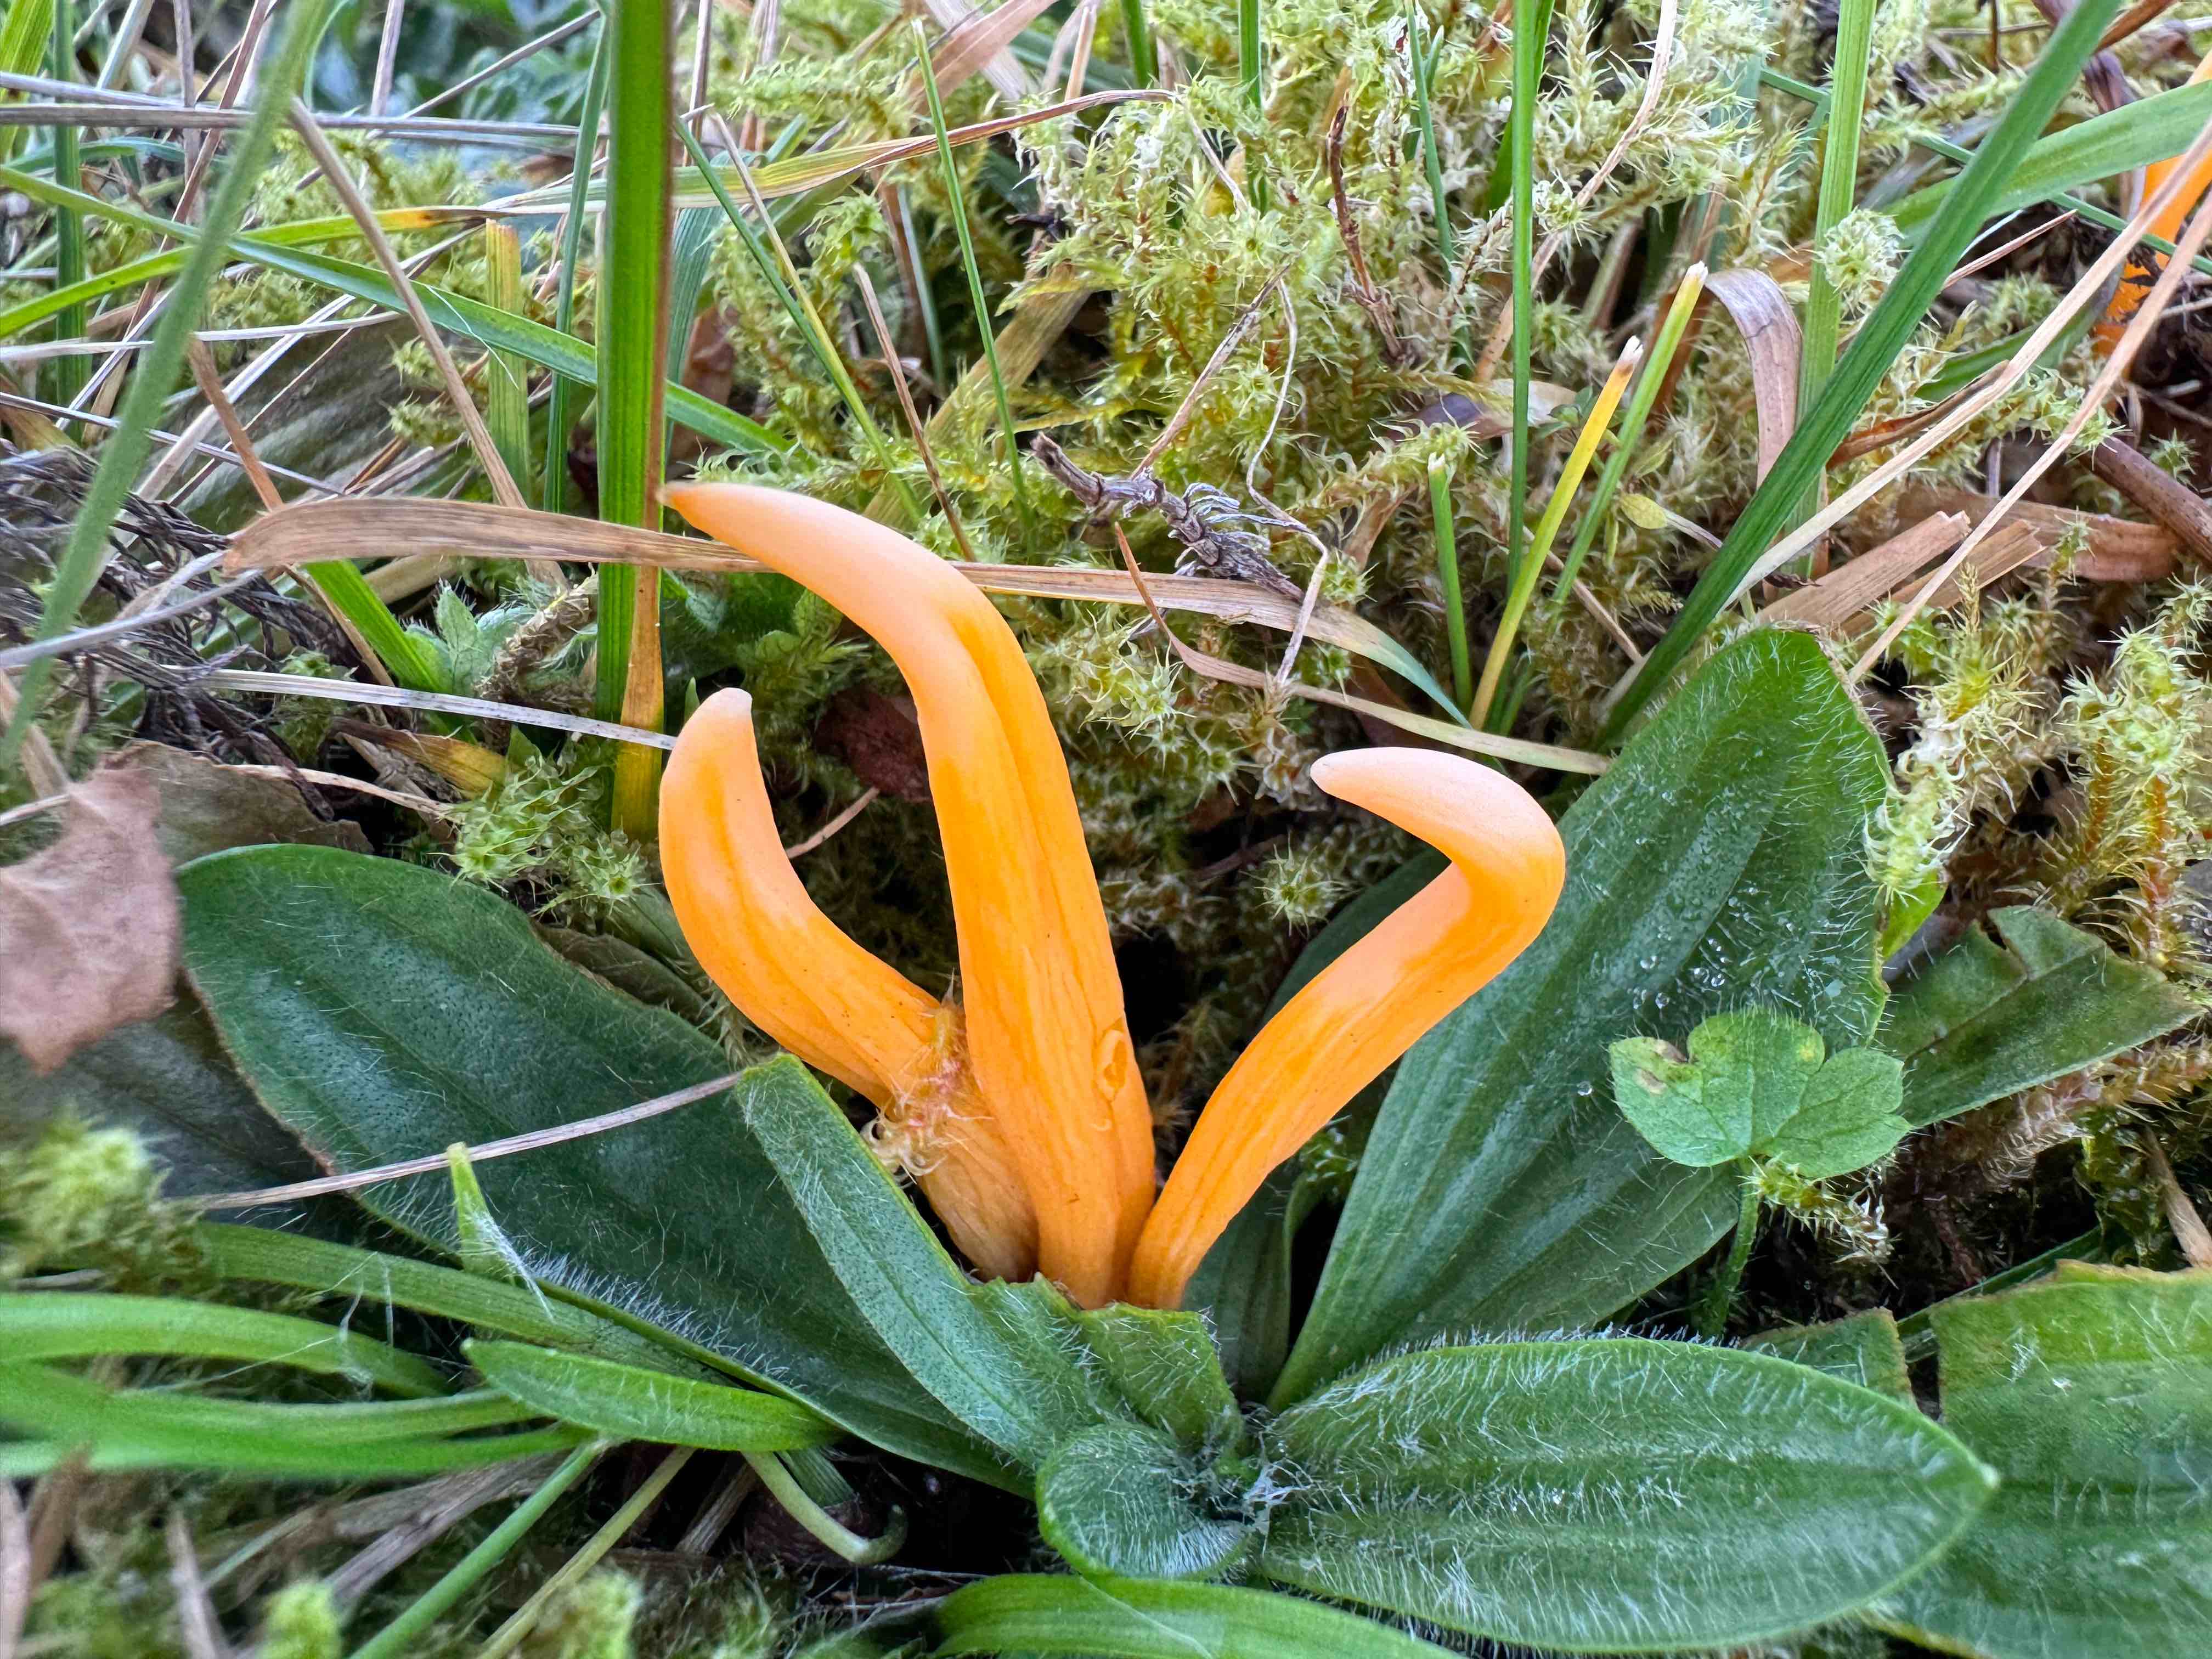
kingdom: Fungi
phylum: Basidiomycota
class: Agaricomycetes
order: Agaricales
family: Clavariaceae
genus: Clavulinopsis
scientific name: Clavulinopsis luteoalba
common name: abrikos-køllesvamp
